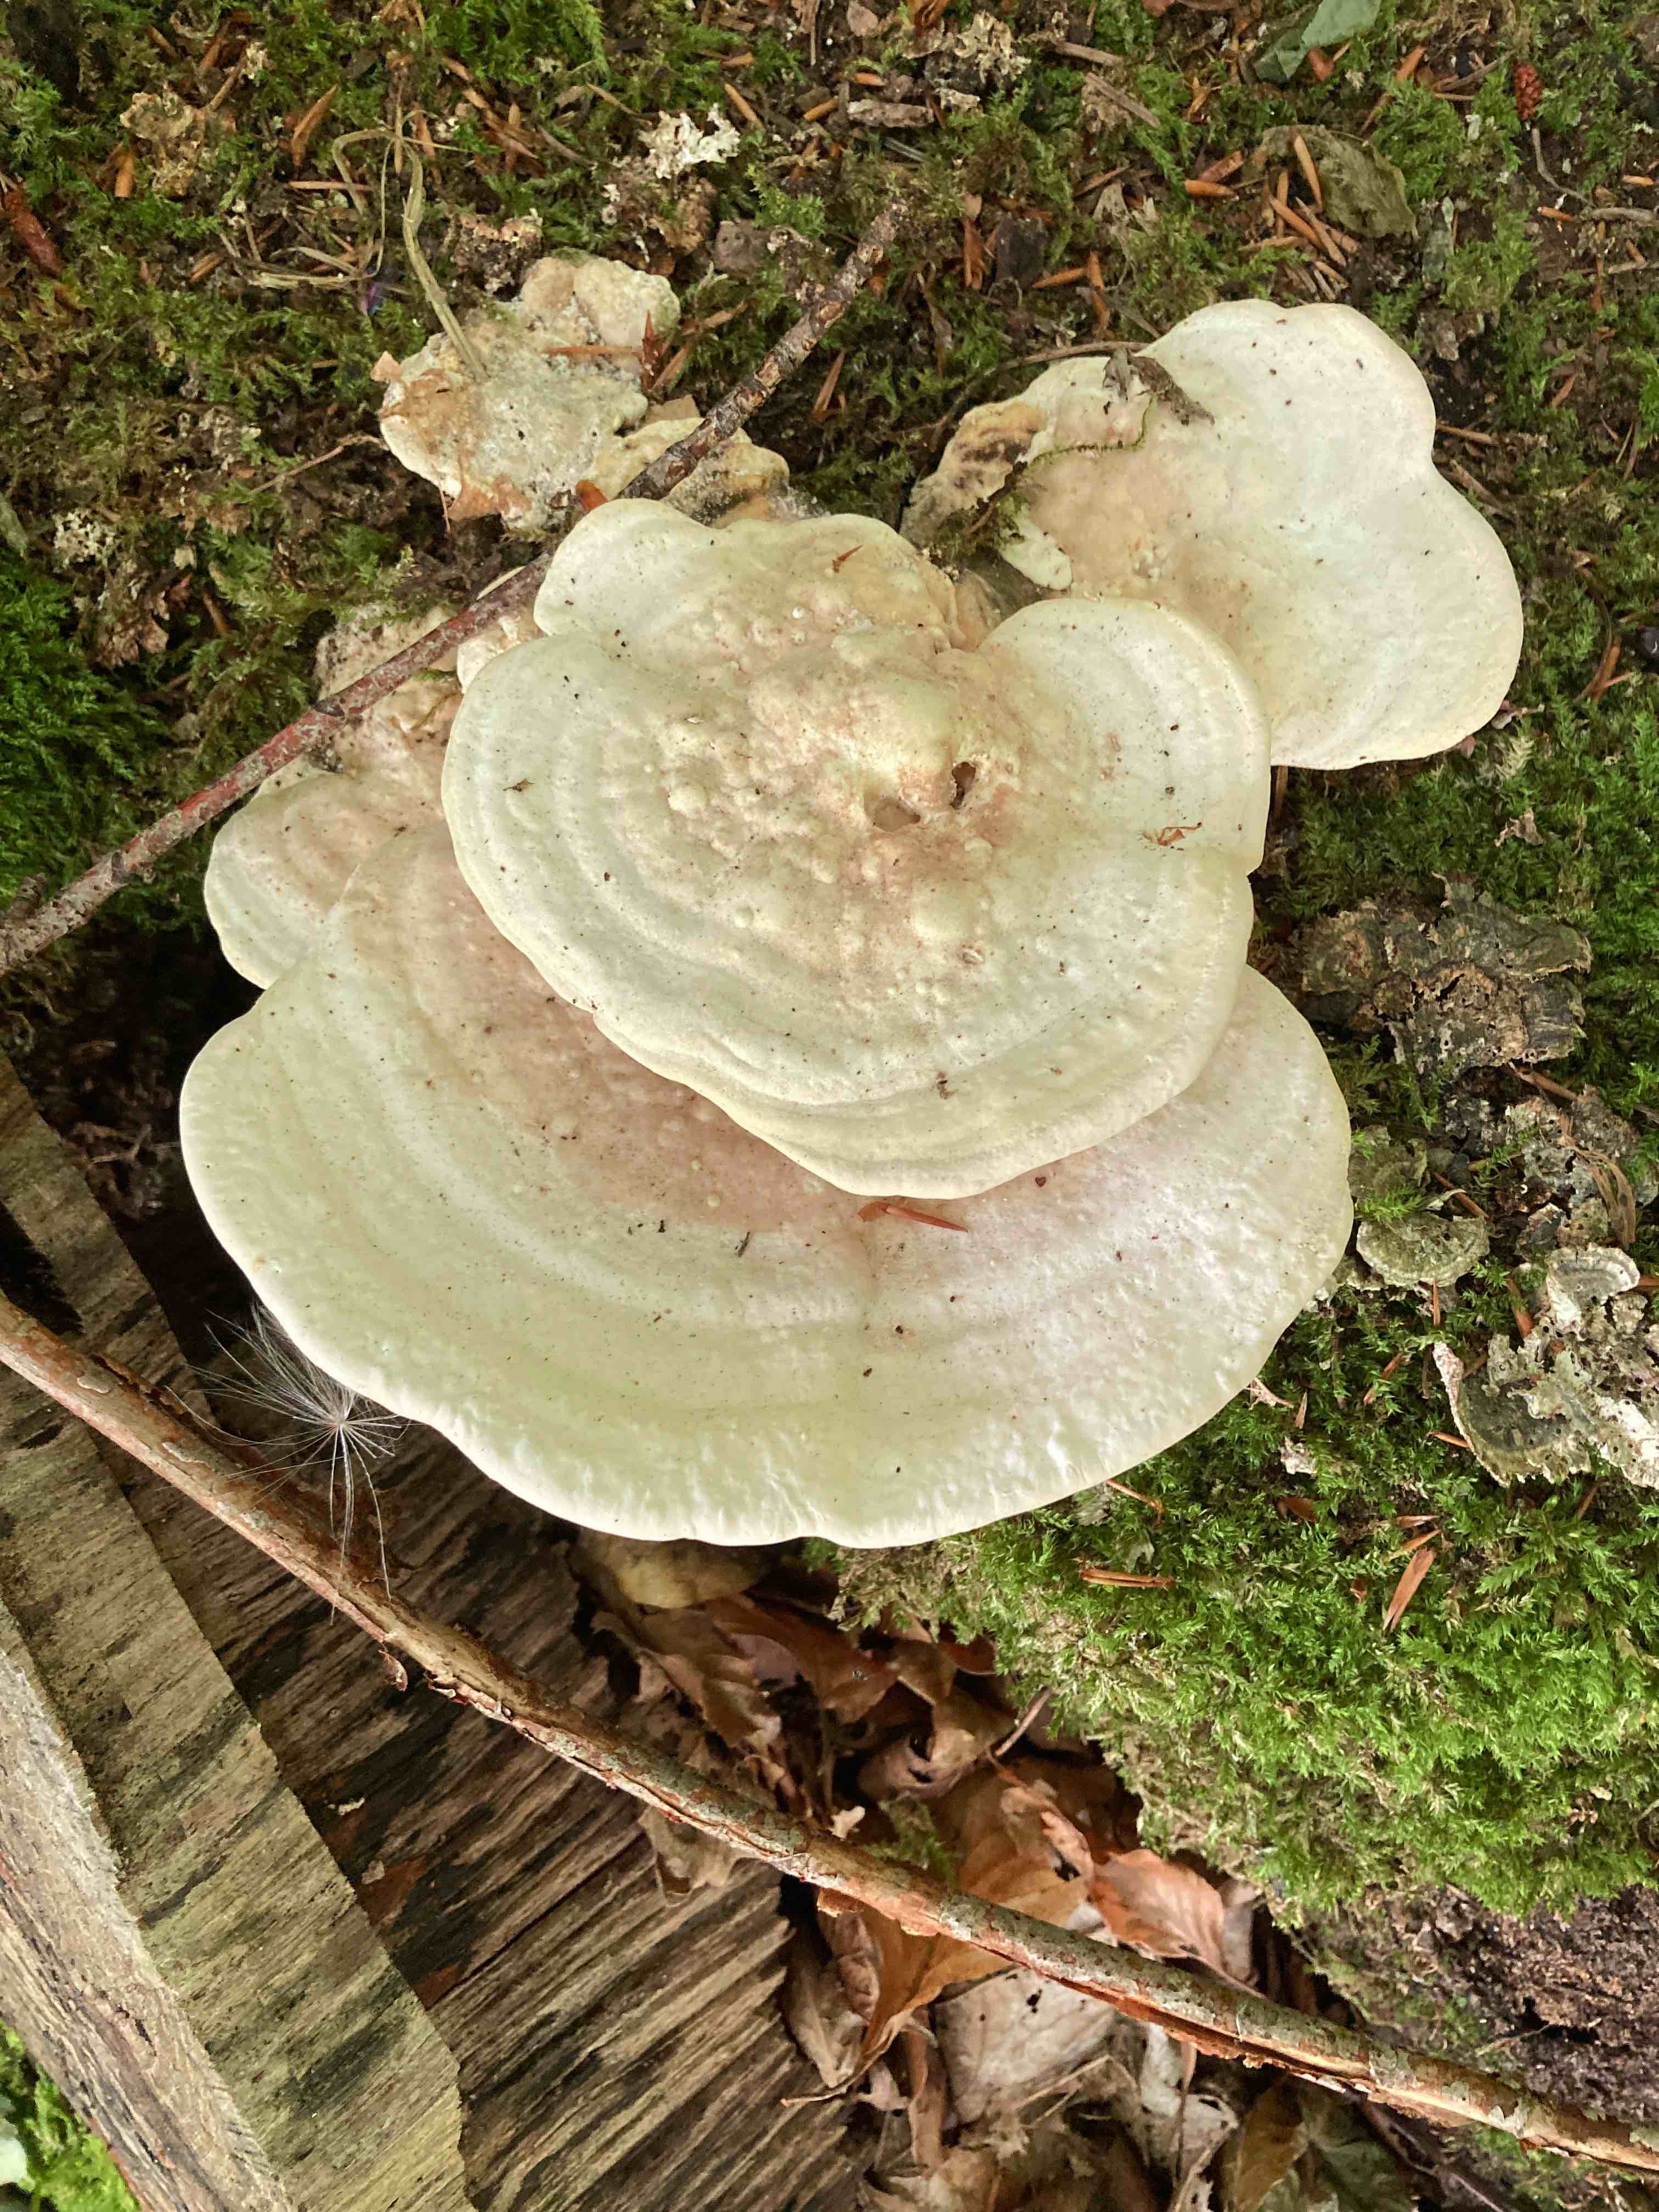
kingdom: Fungi
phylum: Basidiomycota
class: Agaricomycetes
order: Polyporales
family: Polyporaceae
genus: Trametes
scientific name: Trametes gibbosa
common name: puklet læderporesvamp
